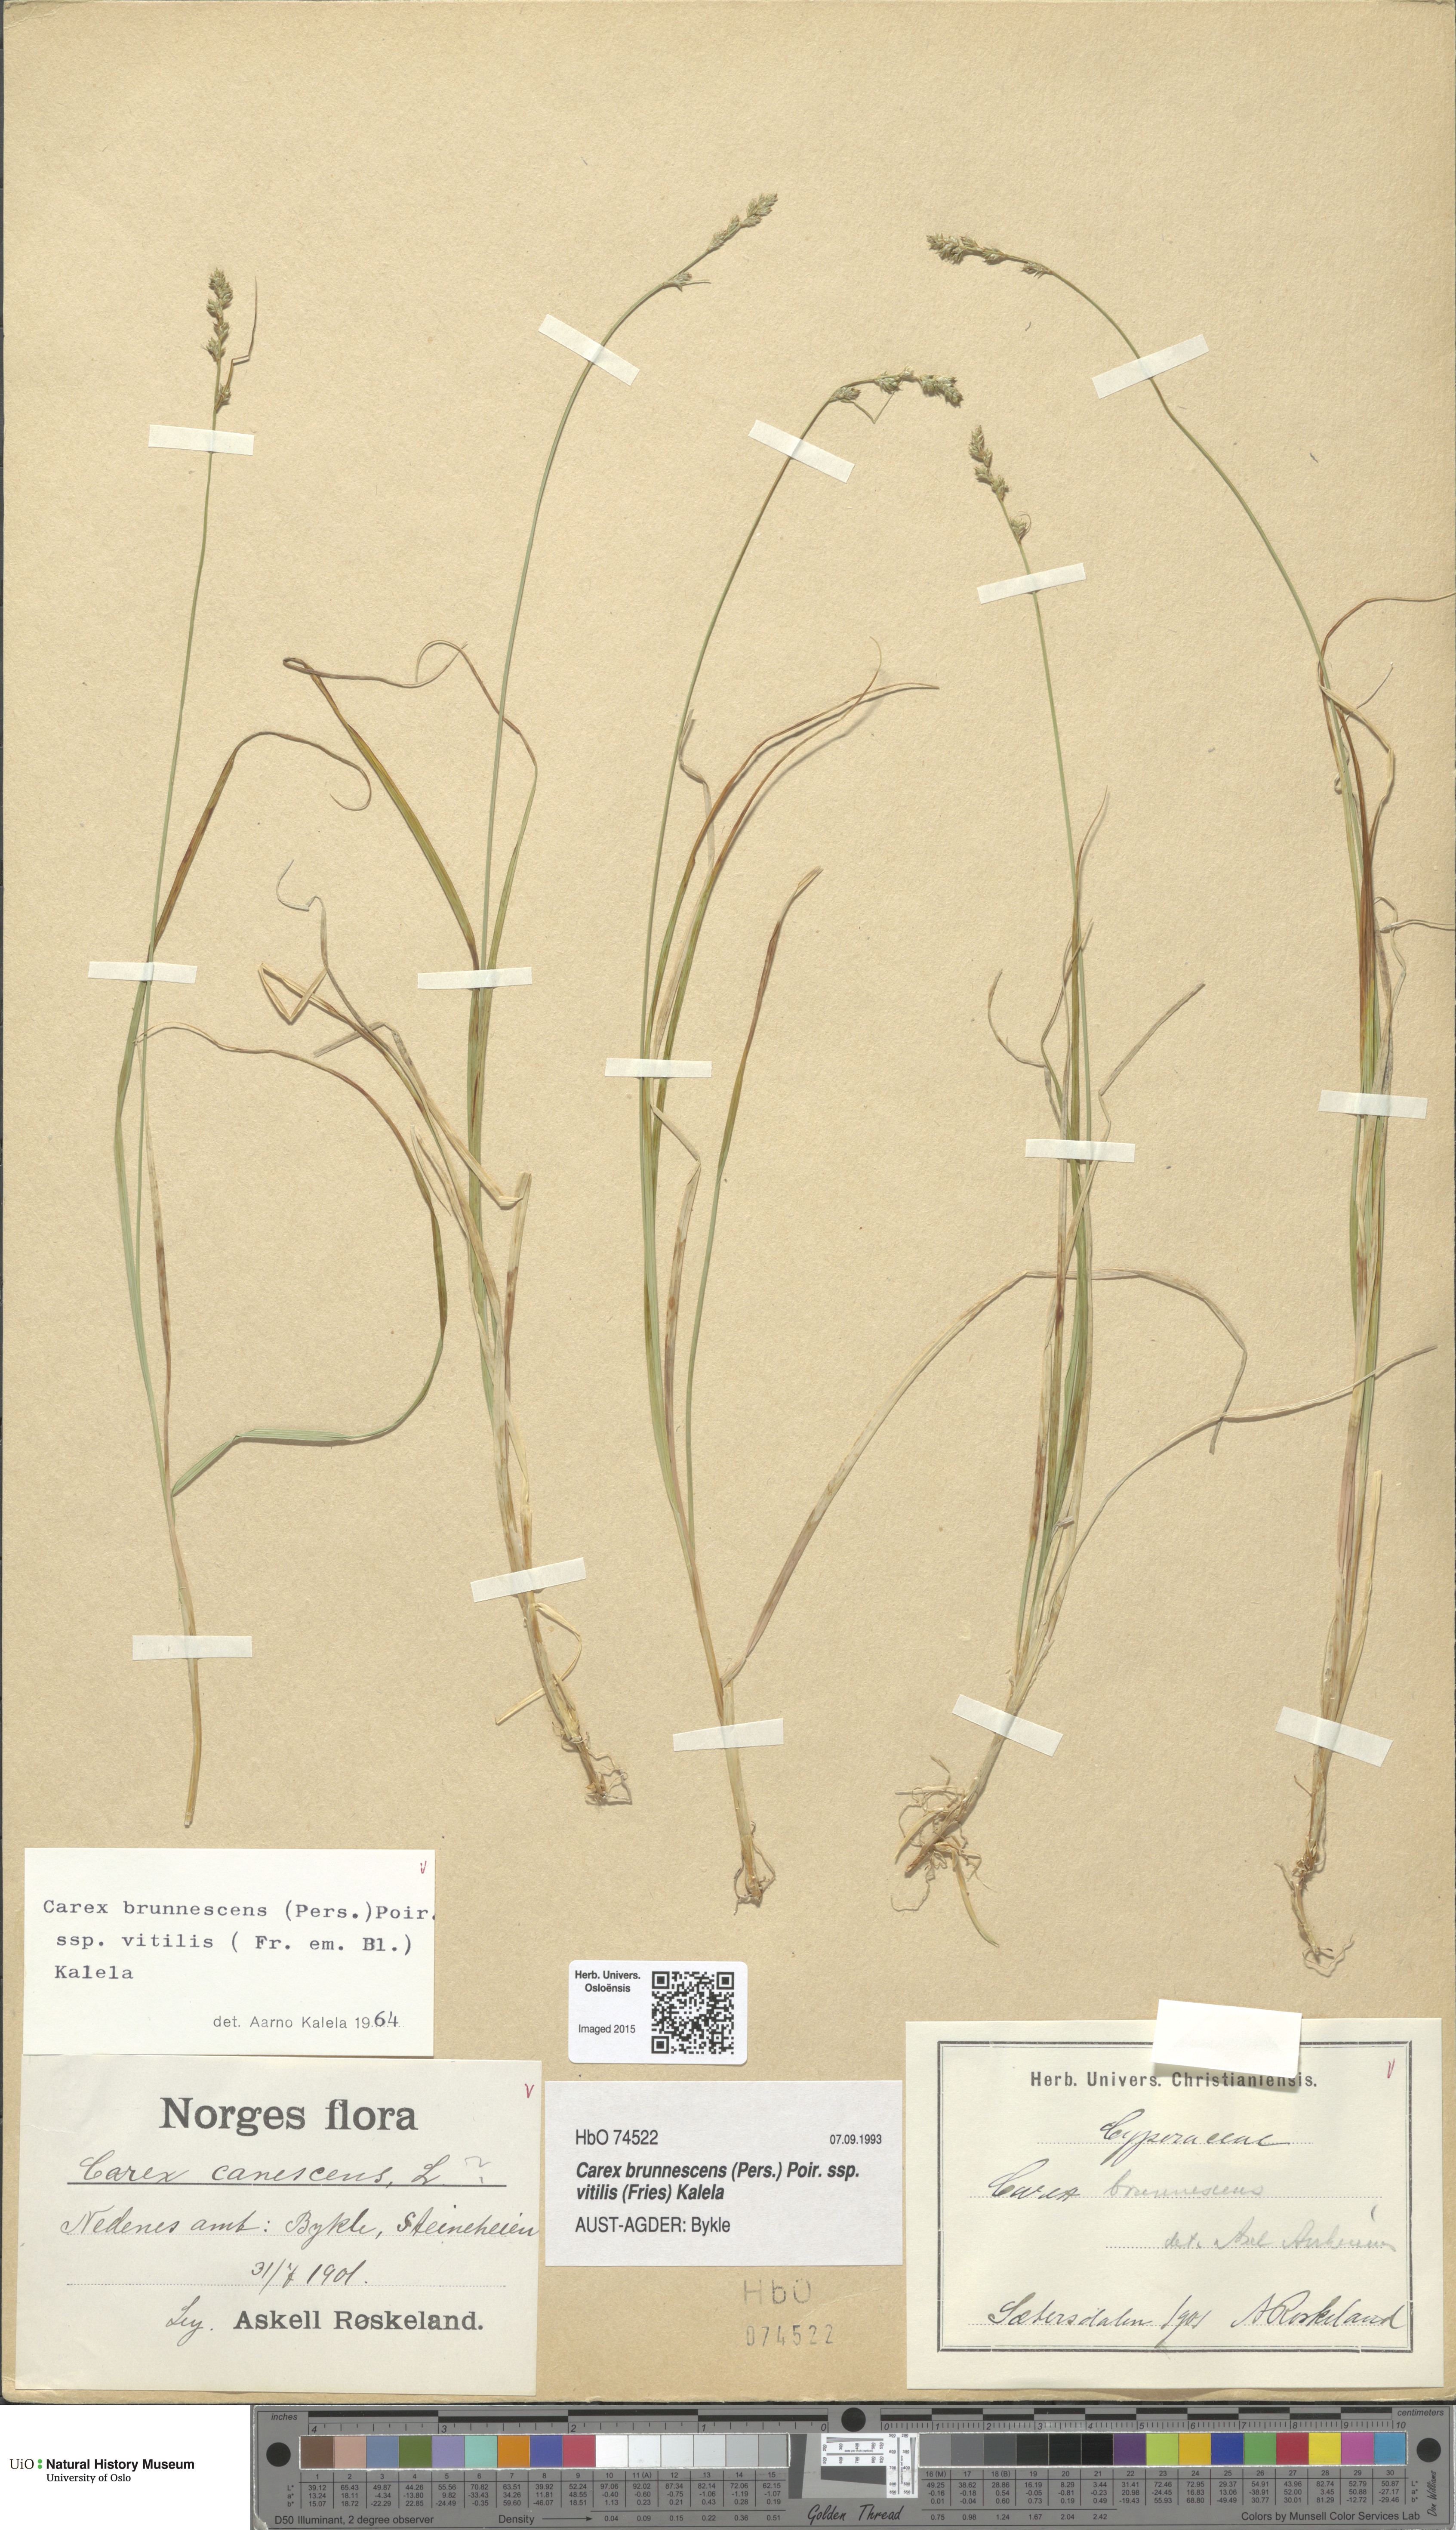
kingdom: Plantae
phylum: Tracheophyta
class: Liliopsida
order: Poales
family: Cyperaceae
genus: Carex
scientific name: Carex brunnescens
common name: Brown sedge
